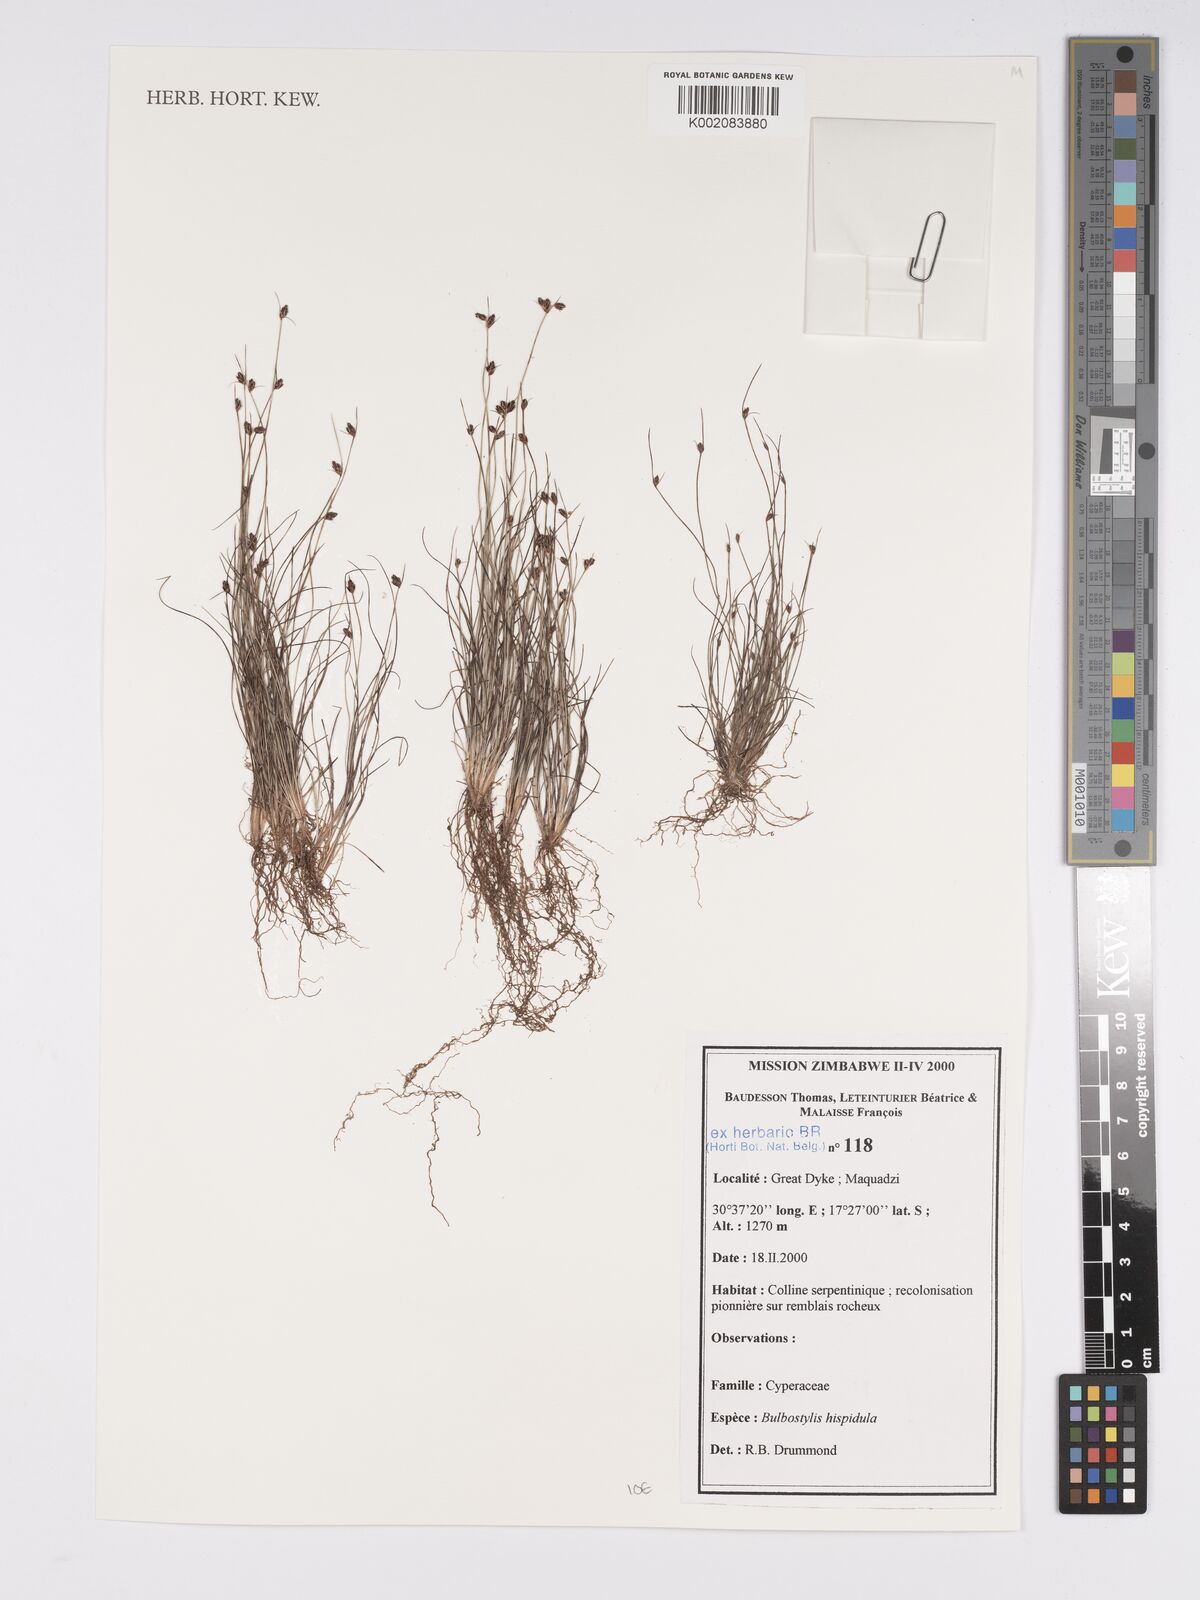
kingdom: Plantae
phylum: Tracheophyta
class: Liliopsida
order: Poales
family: Cyperaceae
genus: Bulbostylis
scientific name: Bulbostylis hispidula
